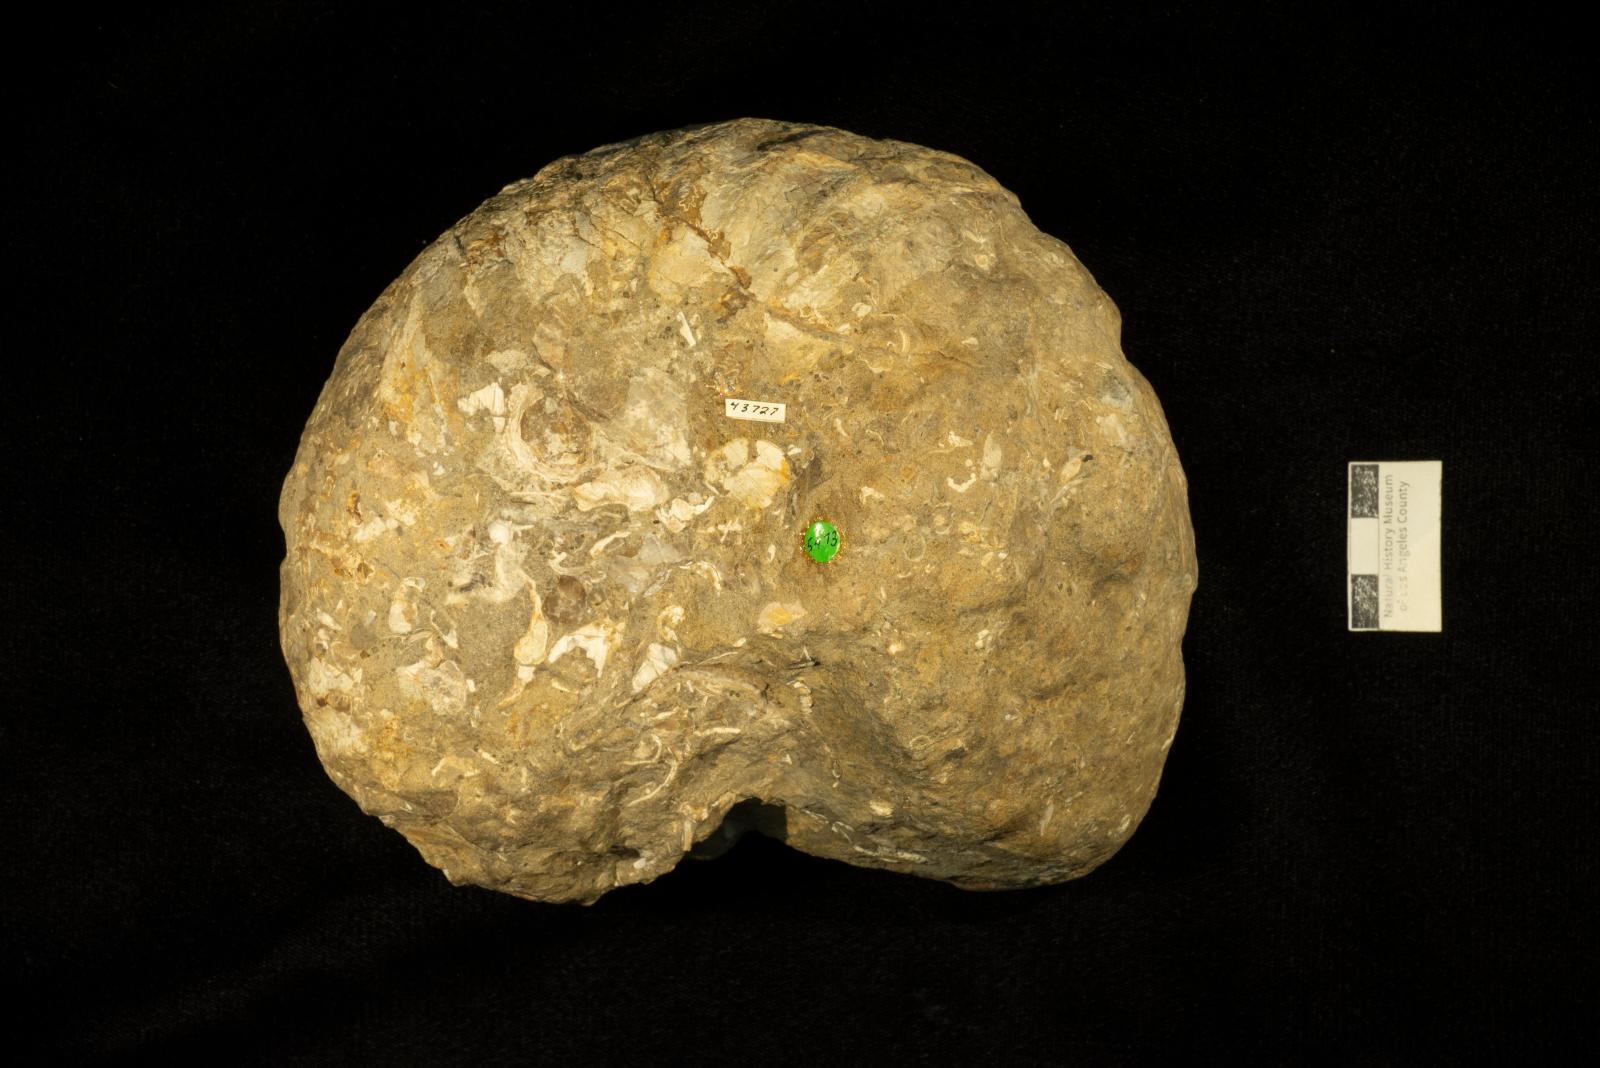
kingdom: Animalia
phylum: Mollusca
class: Cephalopoda
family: Pachydiscidae
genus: Anapachydiscus
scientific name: Anapachydiscus
